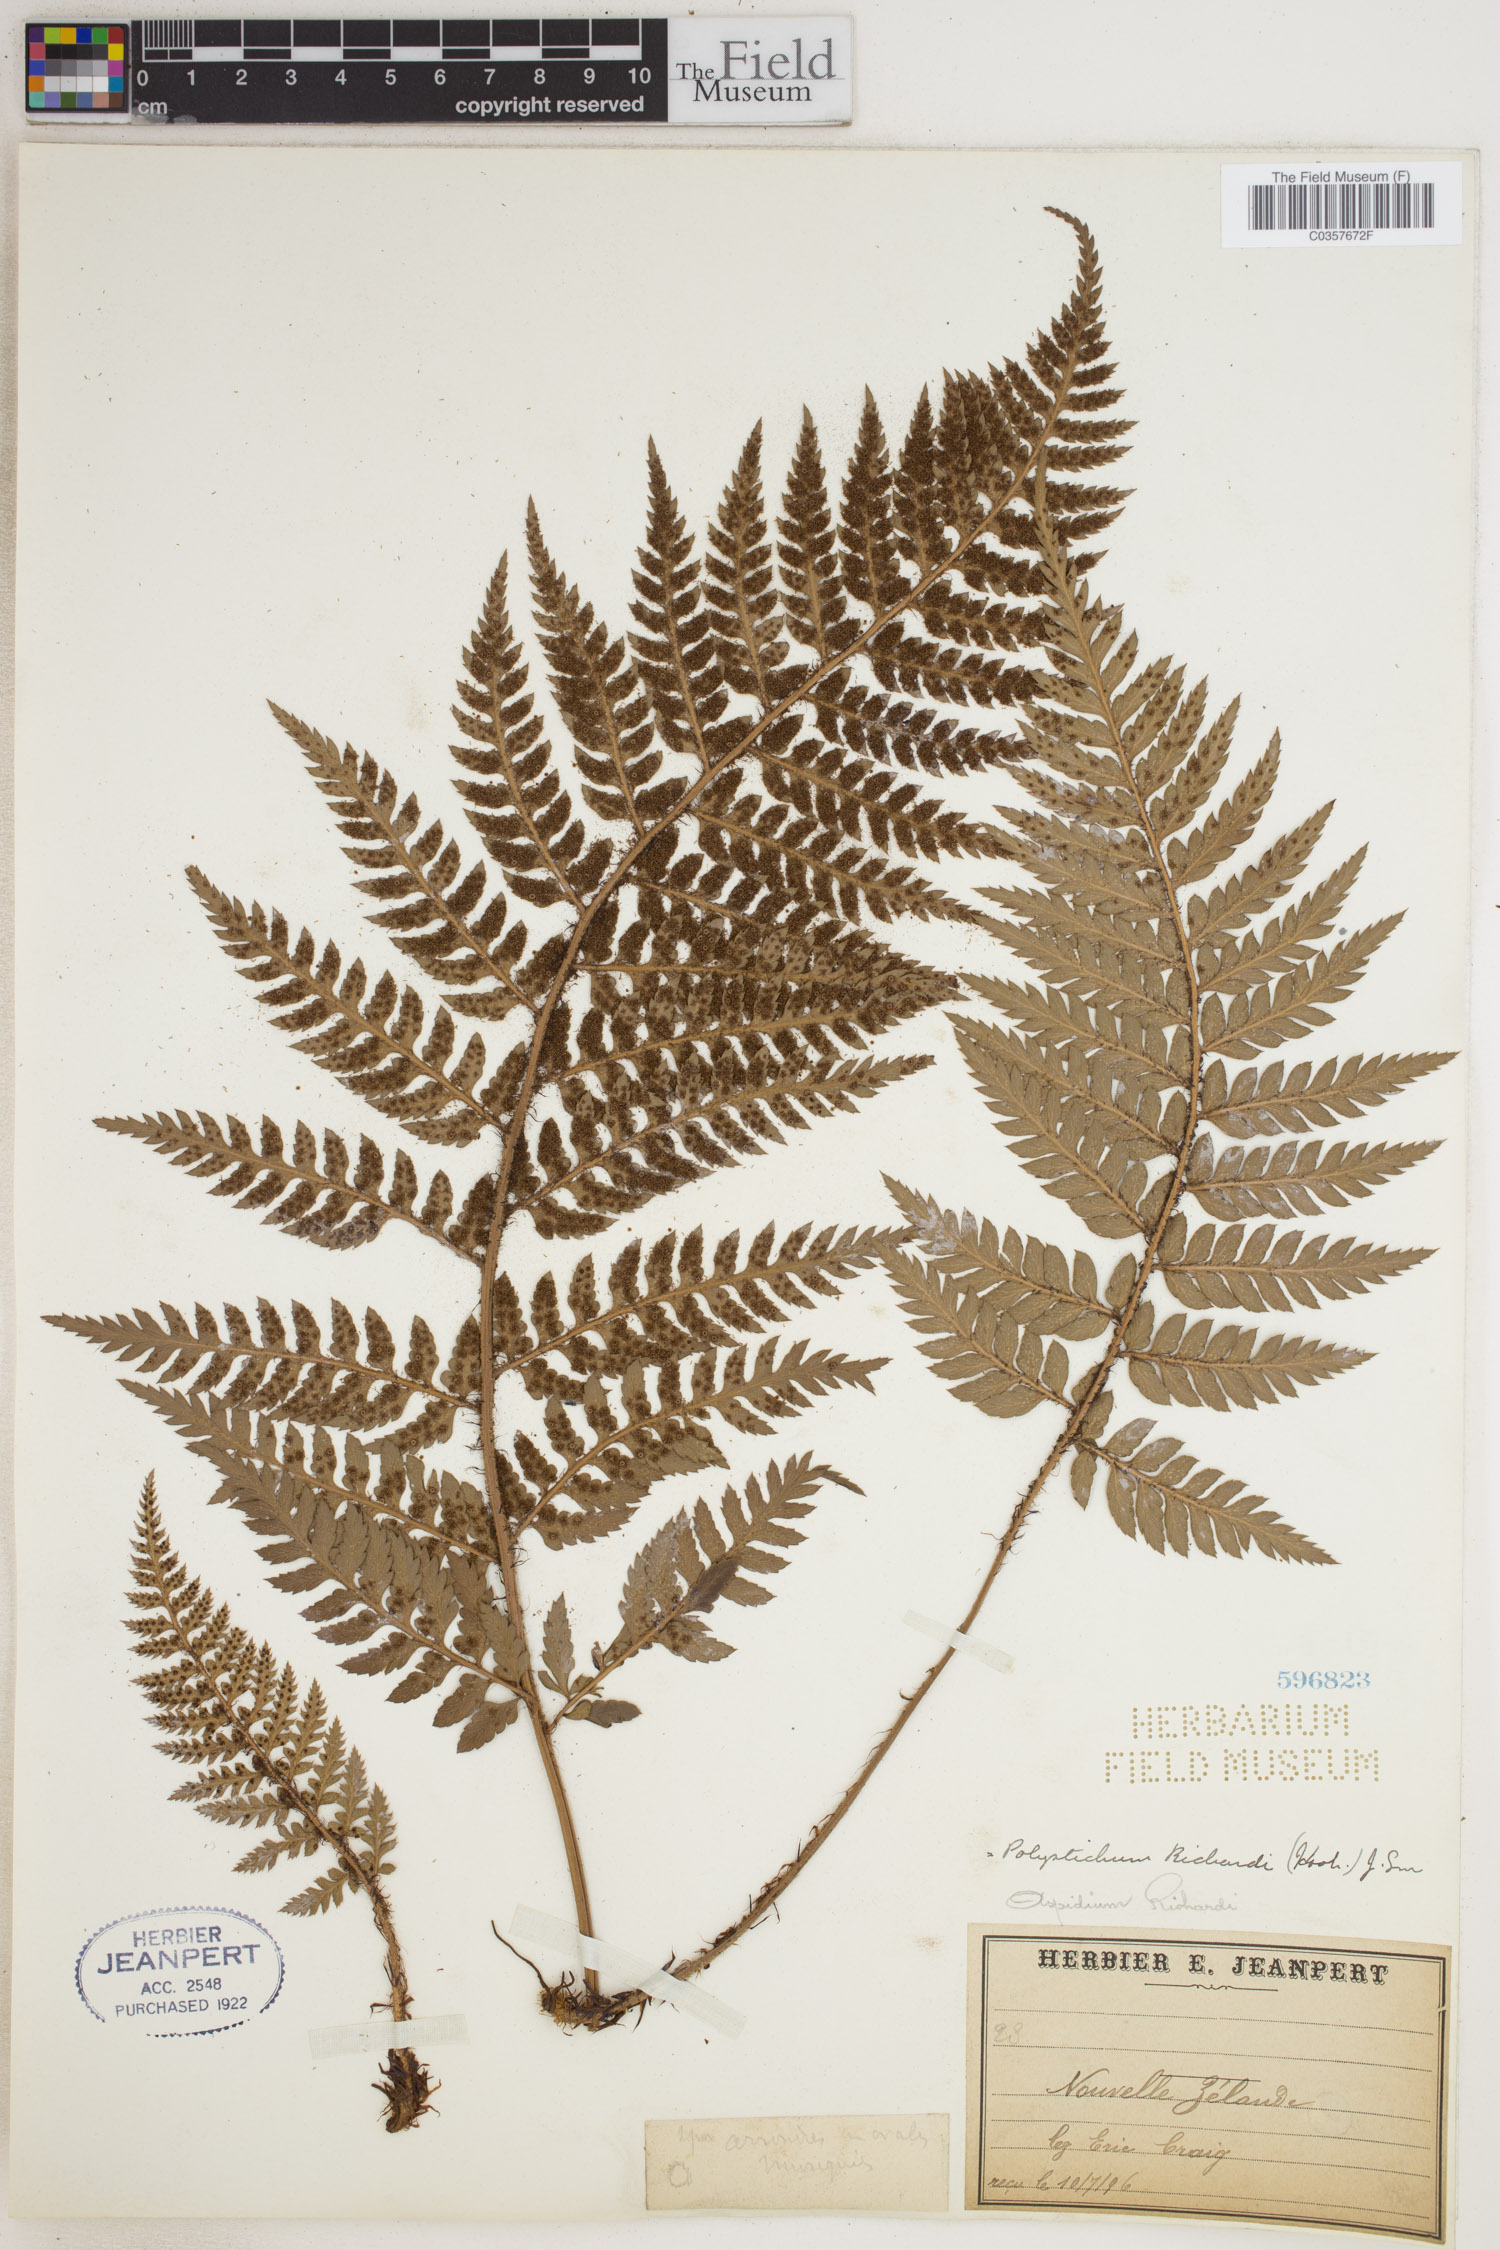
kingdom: Plantae
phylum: Tracheophyta
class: Polypodiopsida
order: Polypodiales
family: Dryopteridaceae
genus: Polystichum
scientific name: Polystichum neozelandicum
